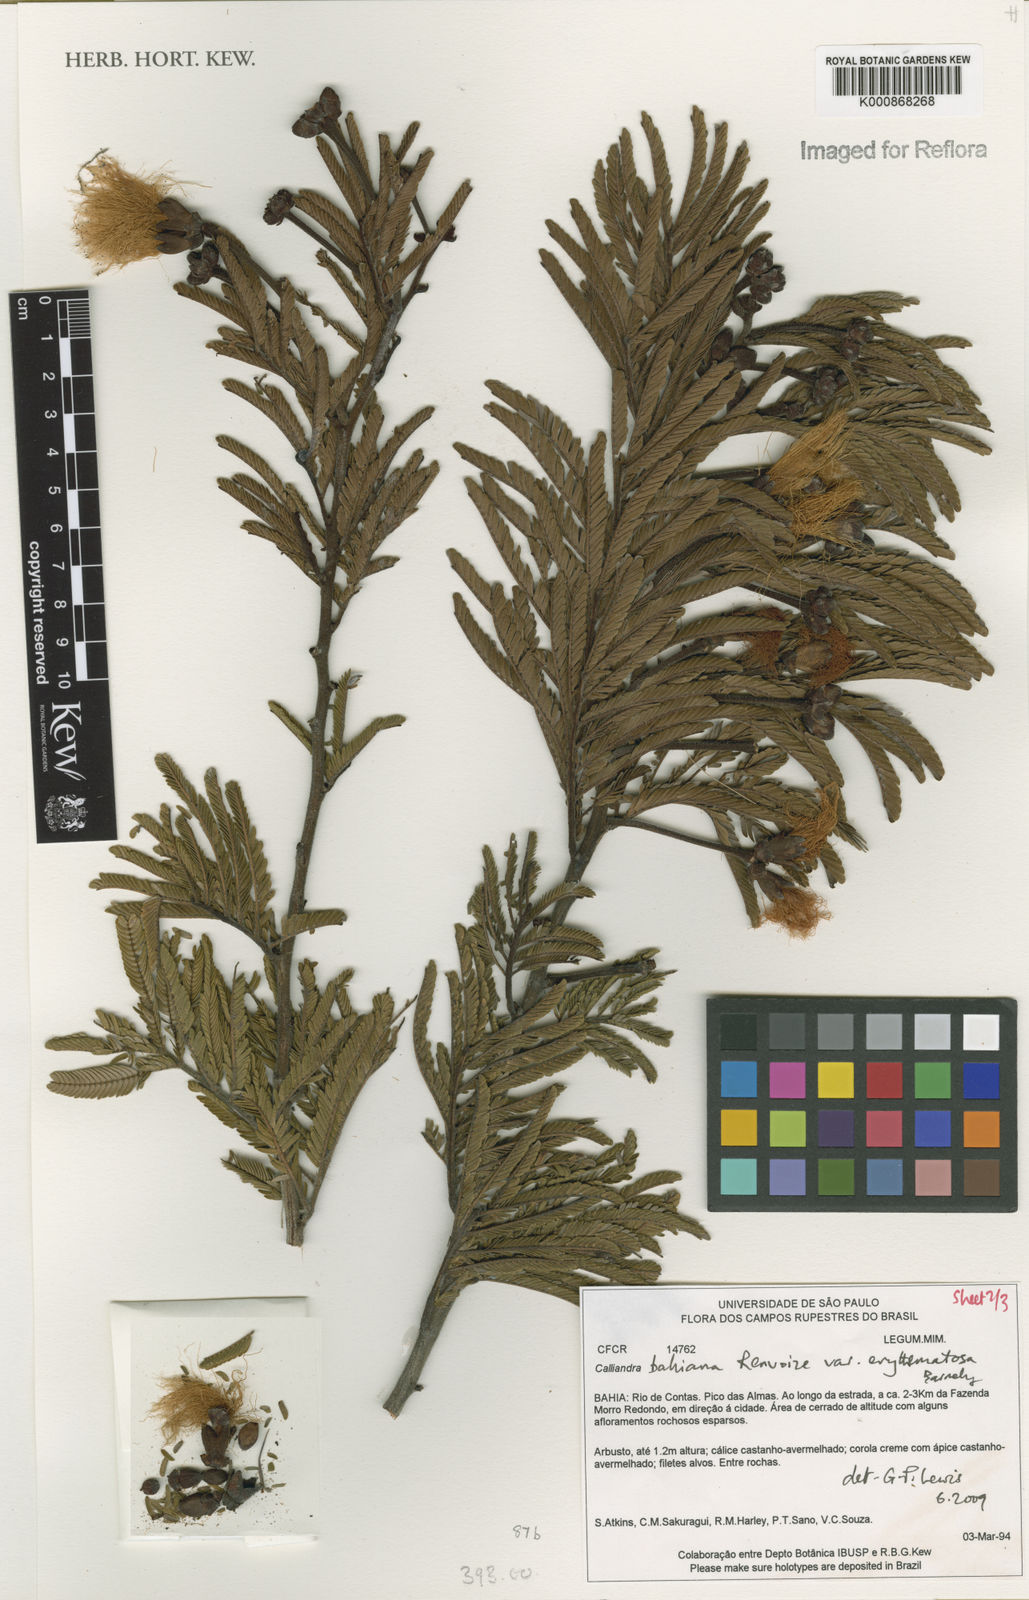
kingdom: Plantae
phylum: Tracheophyta
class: Magnoliopsida
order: Fabales
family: Fabaceae
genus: Calliandra
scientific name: Calliandra bahiana
